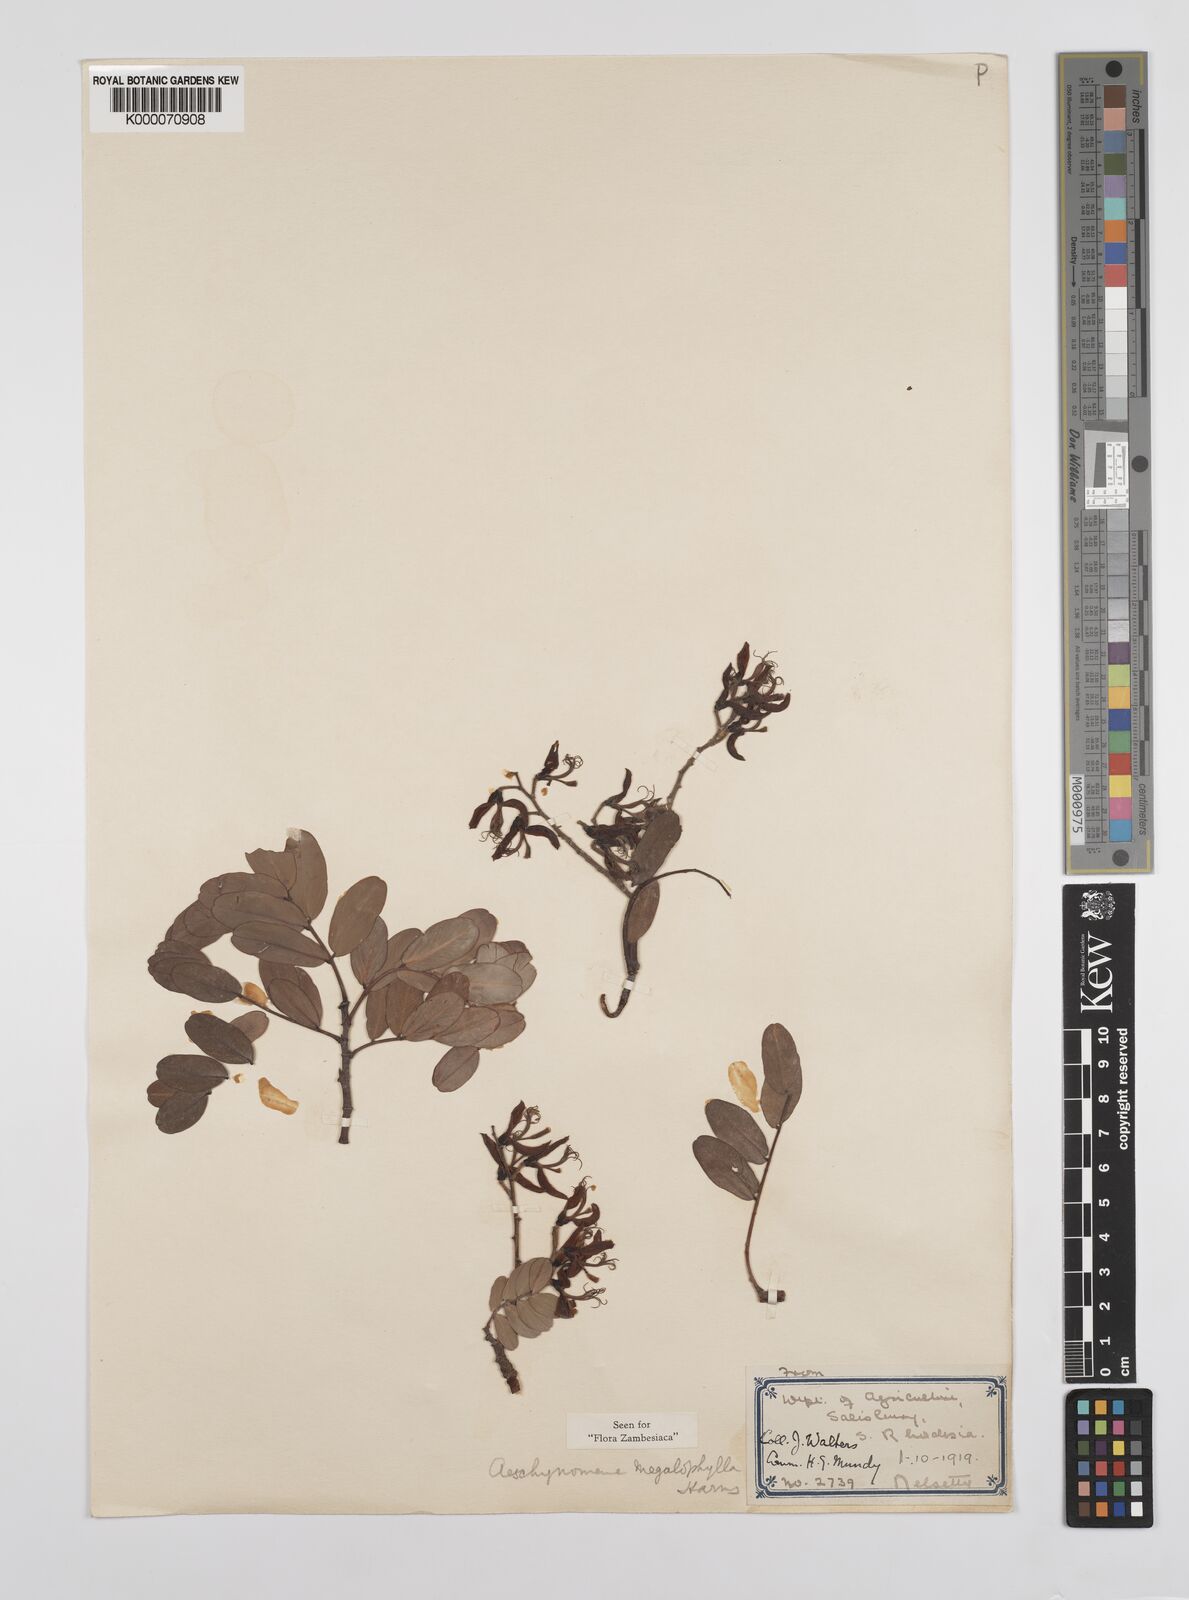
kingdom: Plantae
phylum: Tracheophyta
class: Magnoliopsida
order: Fabales
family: Fabaceae
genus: Aeschynomene
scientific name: Aeschynomene megalophylla
